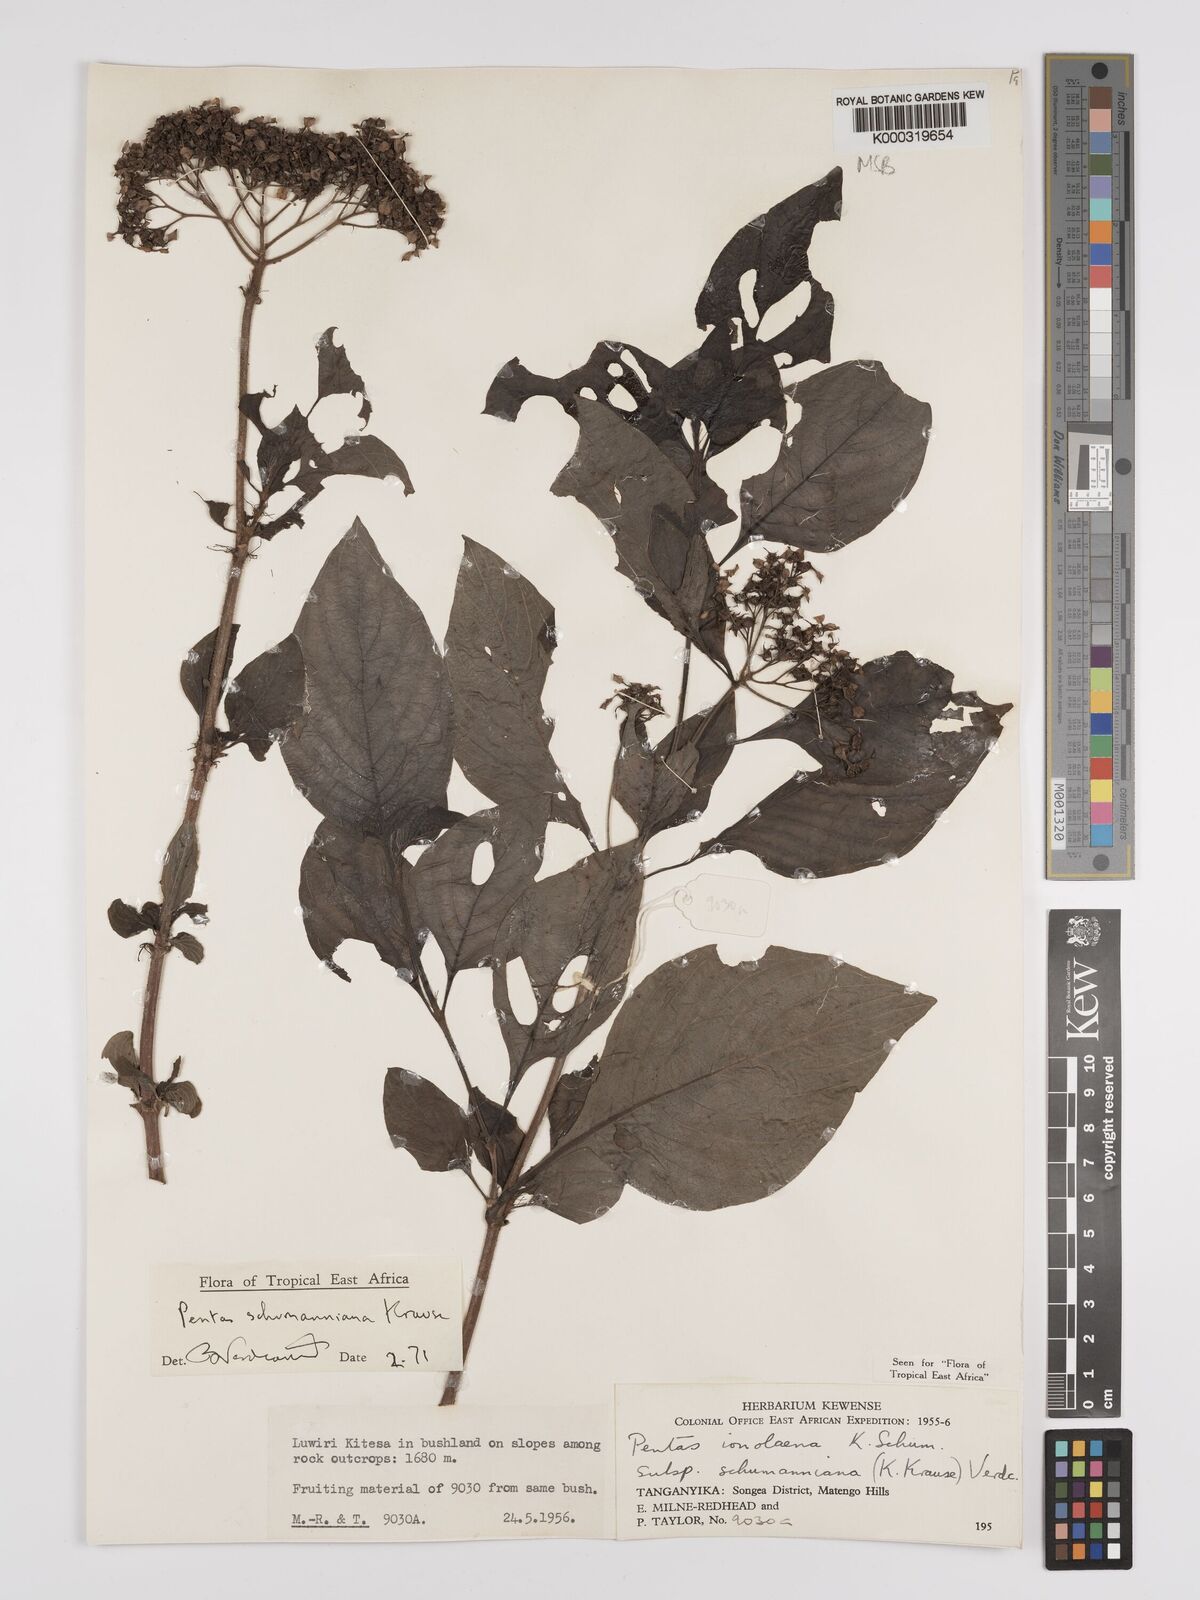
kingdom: Plantae
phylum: Tracheophyta
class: Magnoliopsida
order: Gentianales
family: Rubiaceae
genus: Phyllopentas
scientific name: Phyllopentas schumanniana
